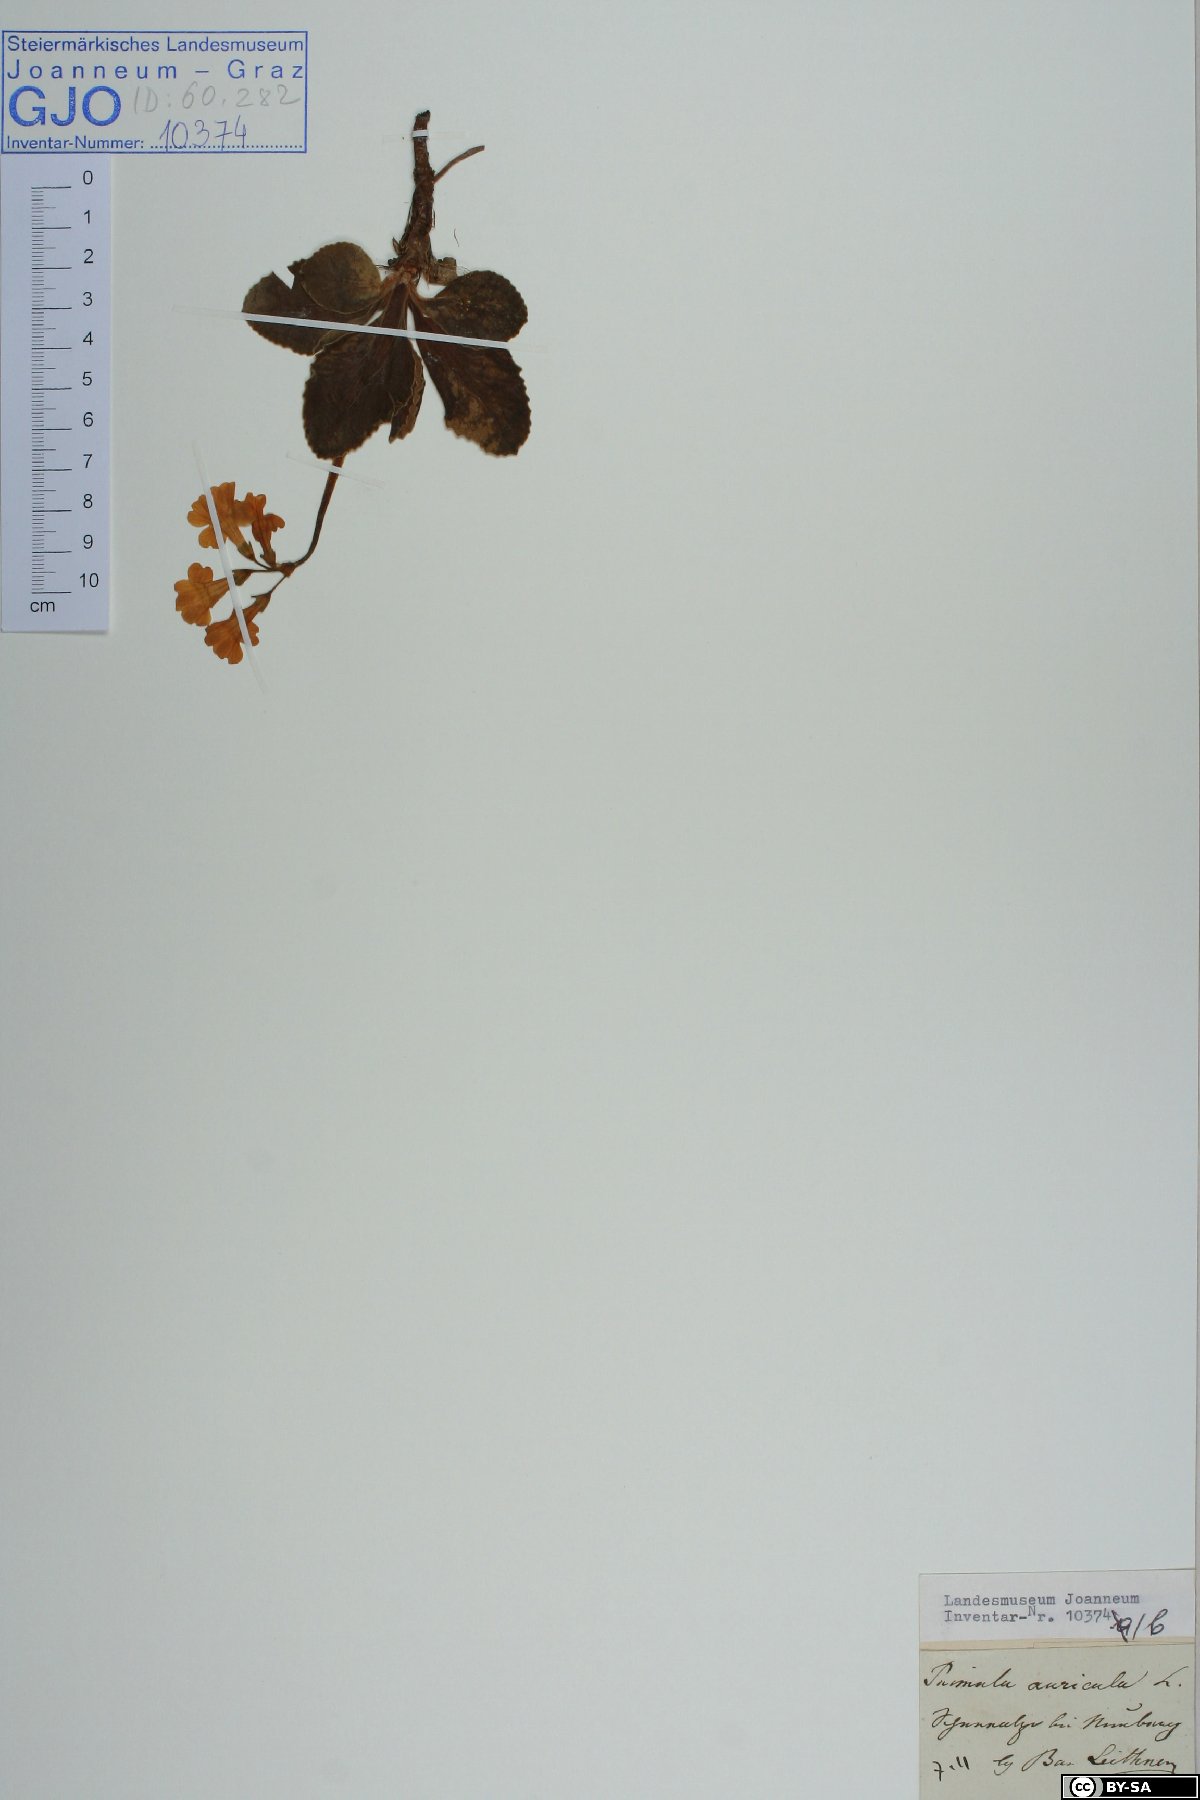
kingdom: Plantae
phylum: Tracheophyta
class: Magnoliopsida
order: Ericales
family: Primulaceae
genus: Primula
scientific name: Primula auricula
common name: Auricula
